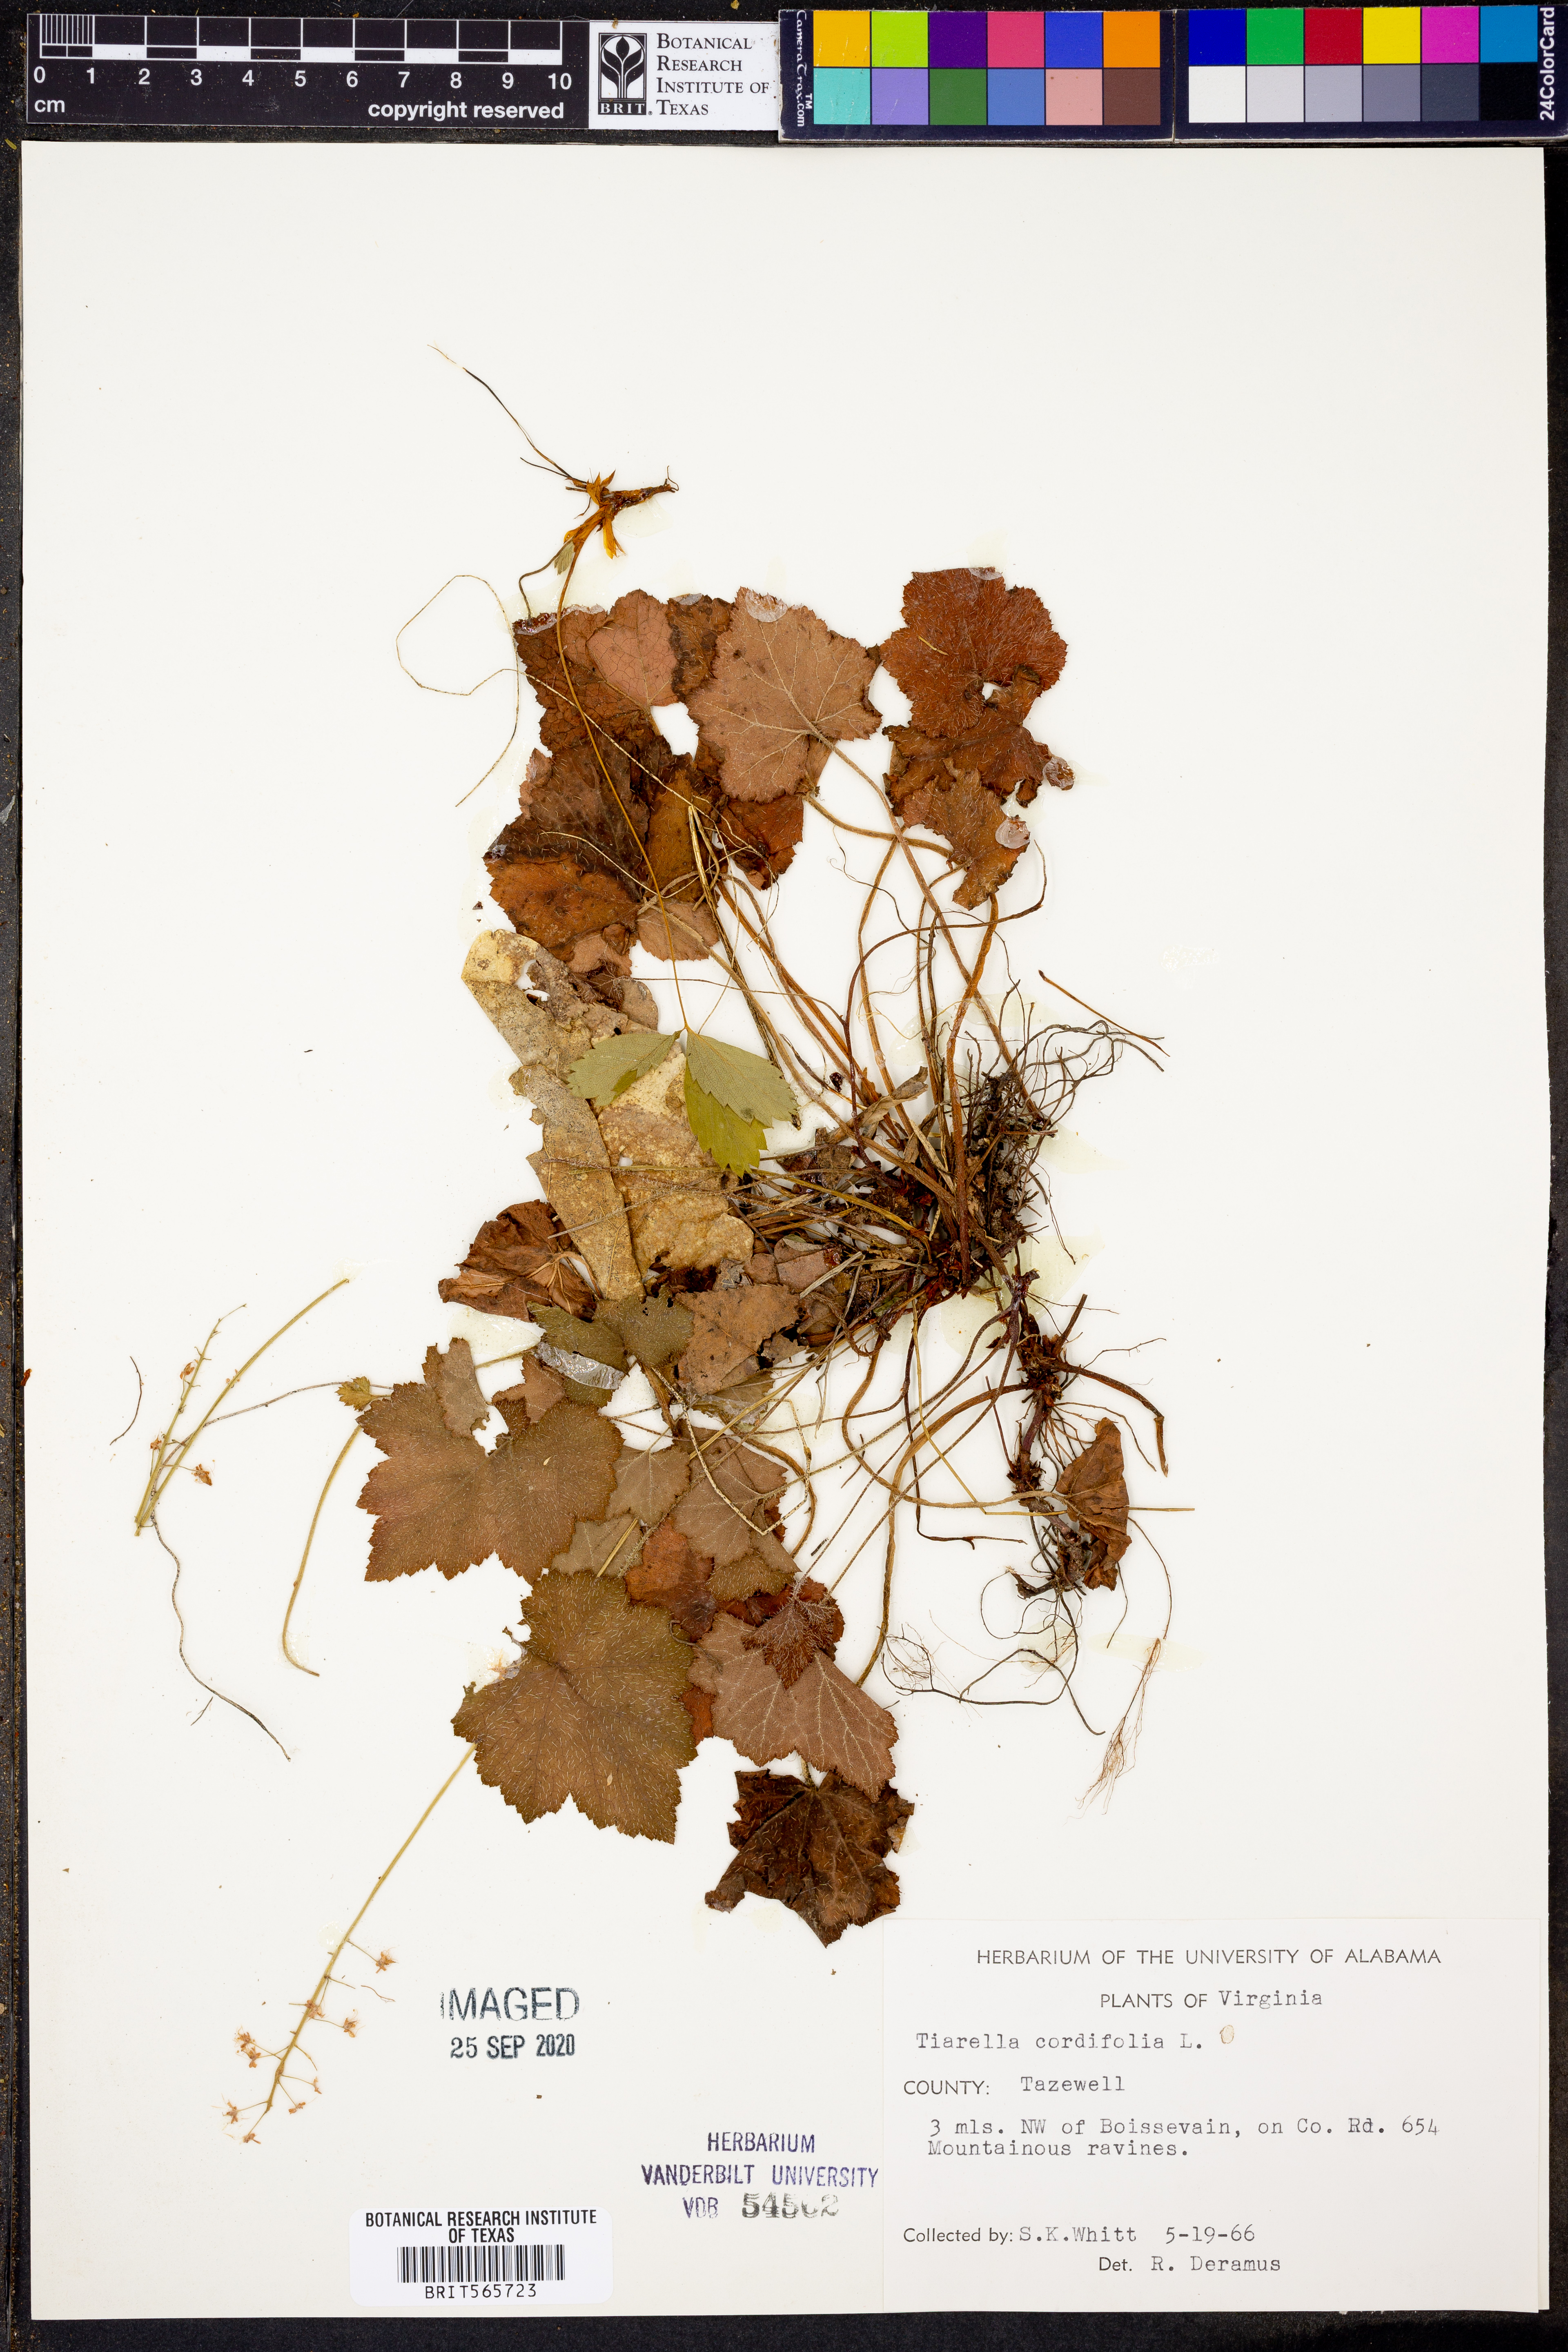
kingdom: Plantae
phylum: Tracheophyta
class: Magnoliopsida
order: Saxifragales
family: Saxifragaceae
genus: Tiarella
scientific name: Tiarella cordifolia
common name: Foamflower
